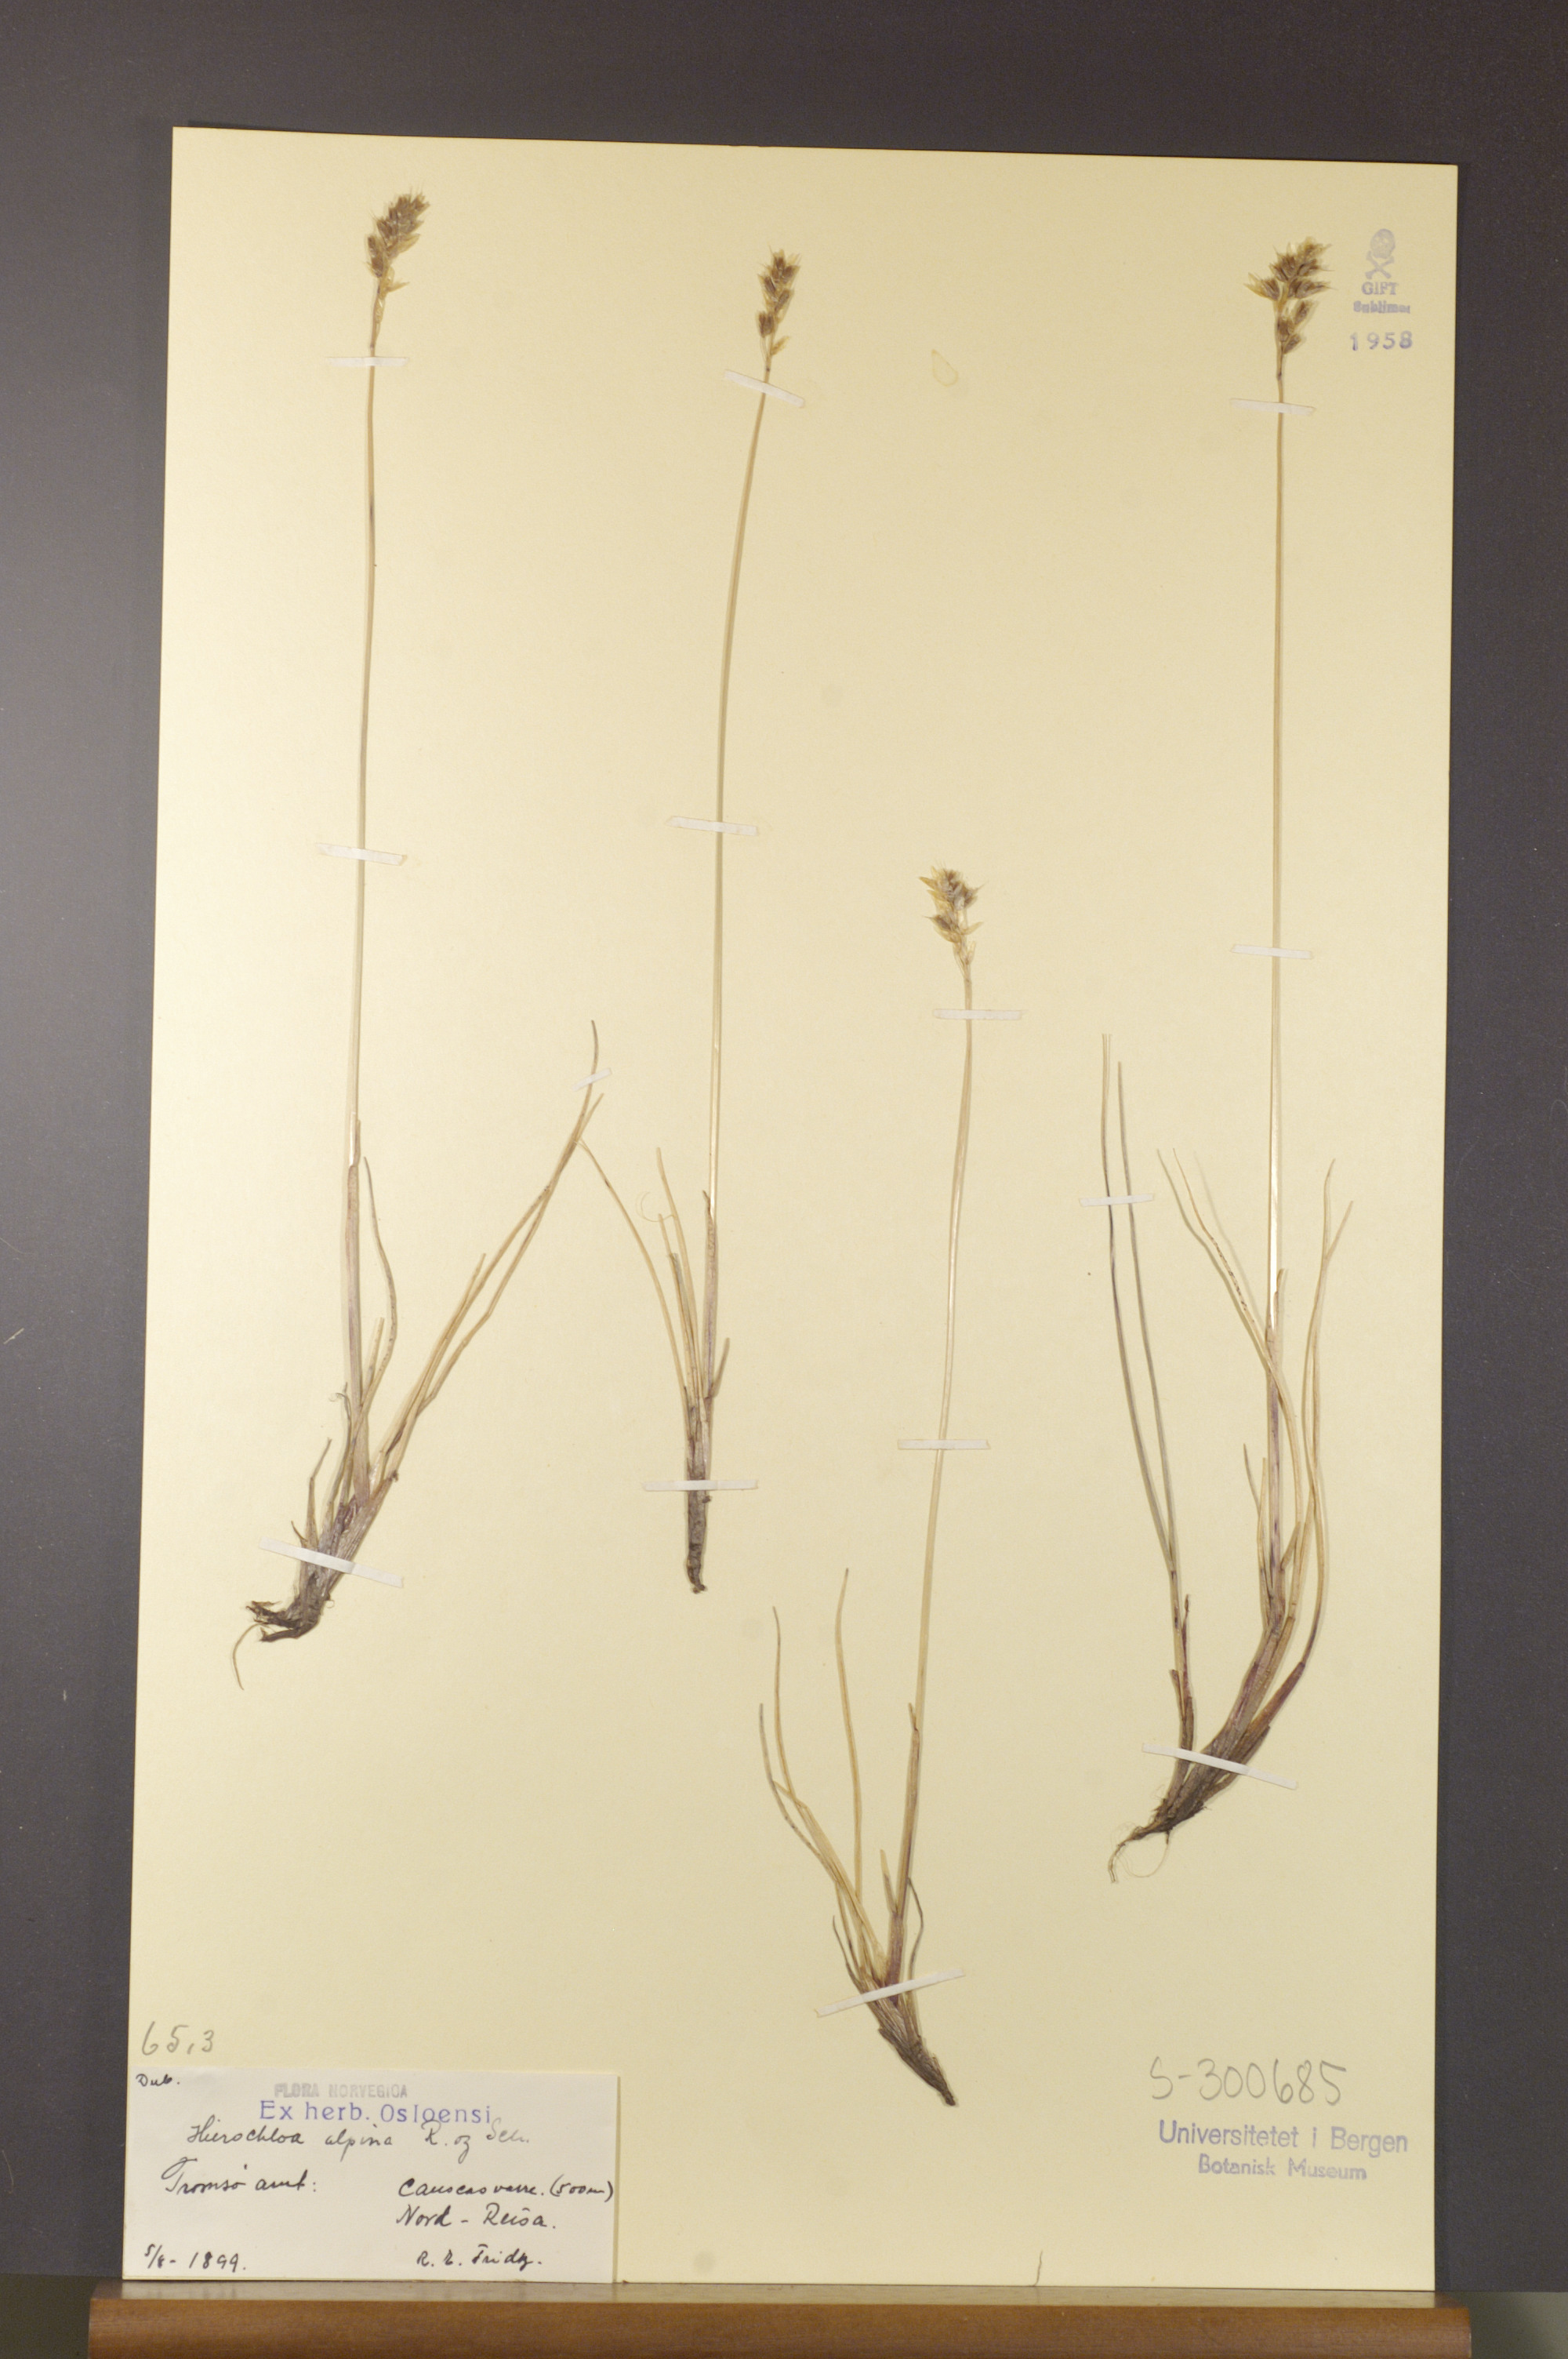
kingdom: Plantae
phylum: Tracheophyta
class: Liliopsida
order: Poales
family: Poaceae
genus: Anthoxanthum
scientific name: Anthoxanthum monticola
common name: Alpine sweetgrass
